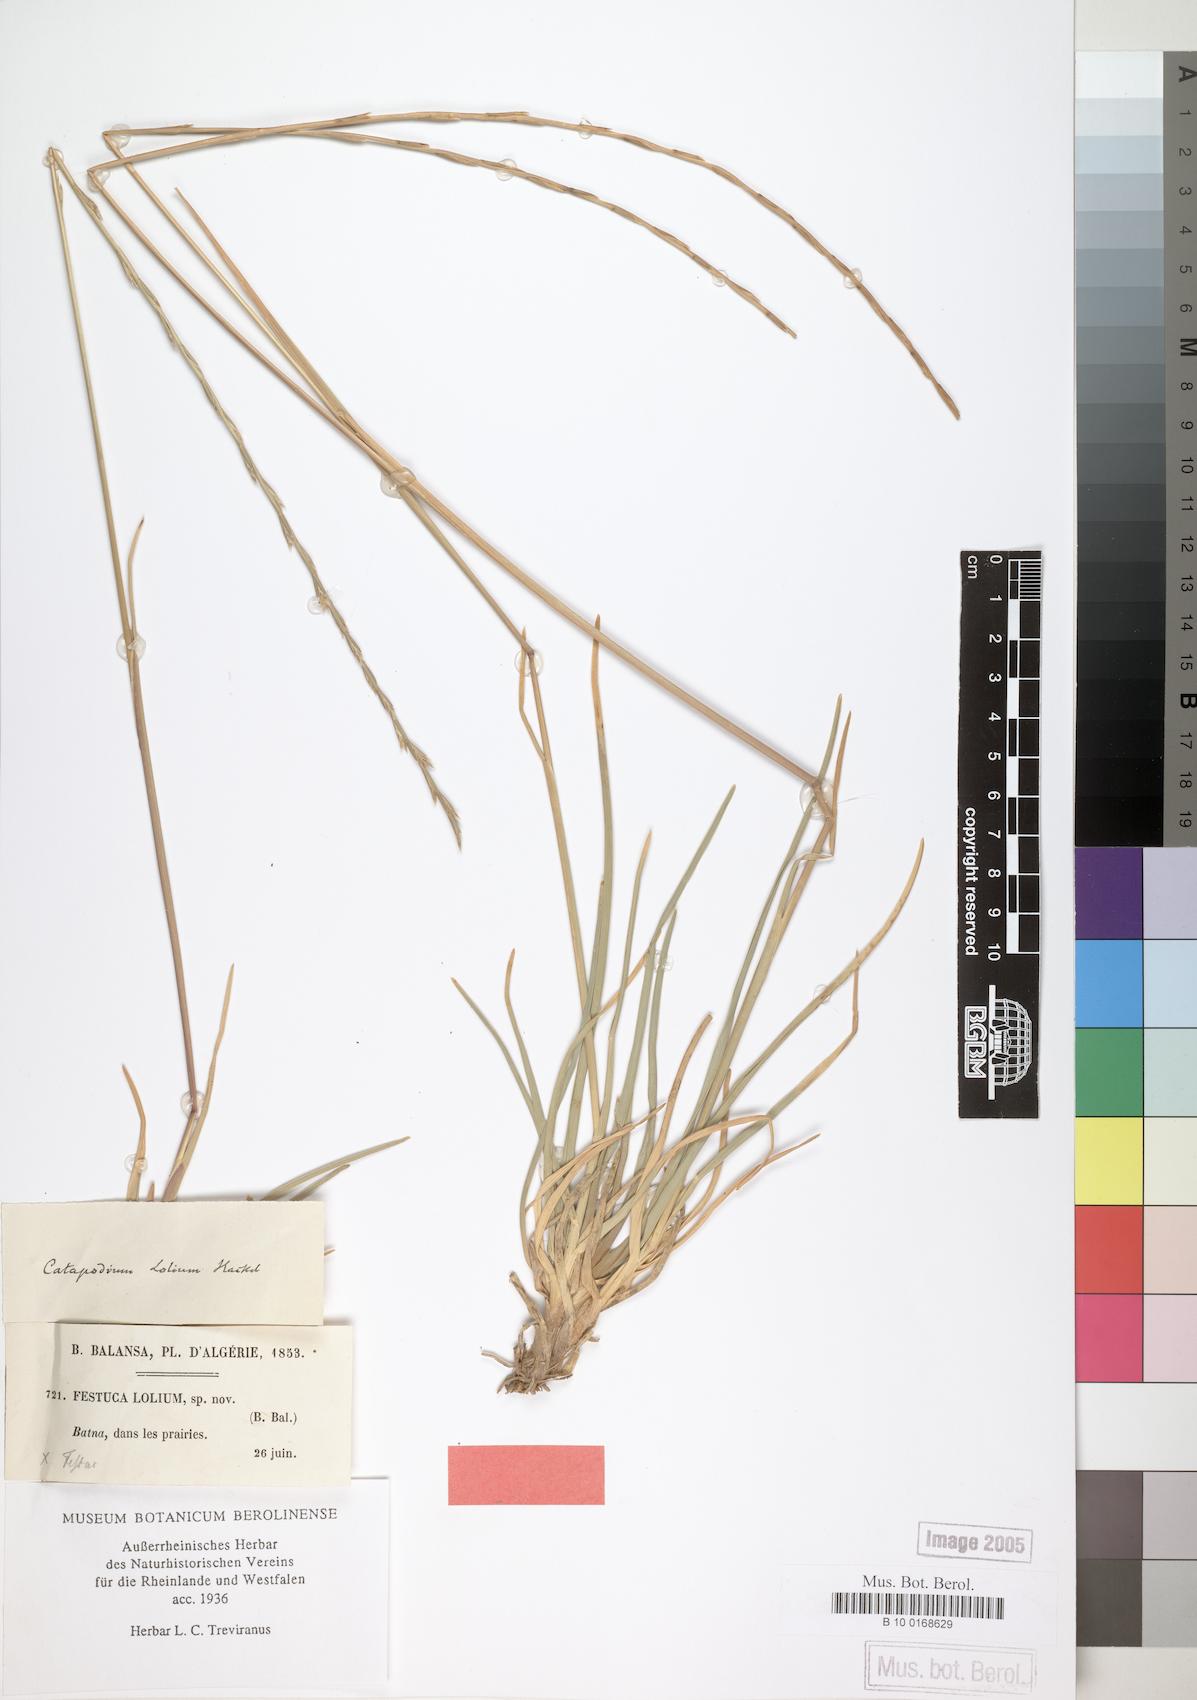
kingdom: Plantae
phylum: Tracheophyta
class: Liliopsida
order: Poales
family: Poaceae
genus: Agropyropsis
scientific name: Agropyropsis lolium
